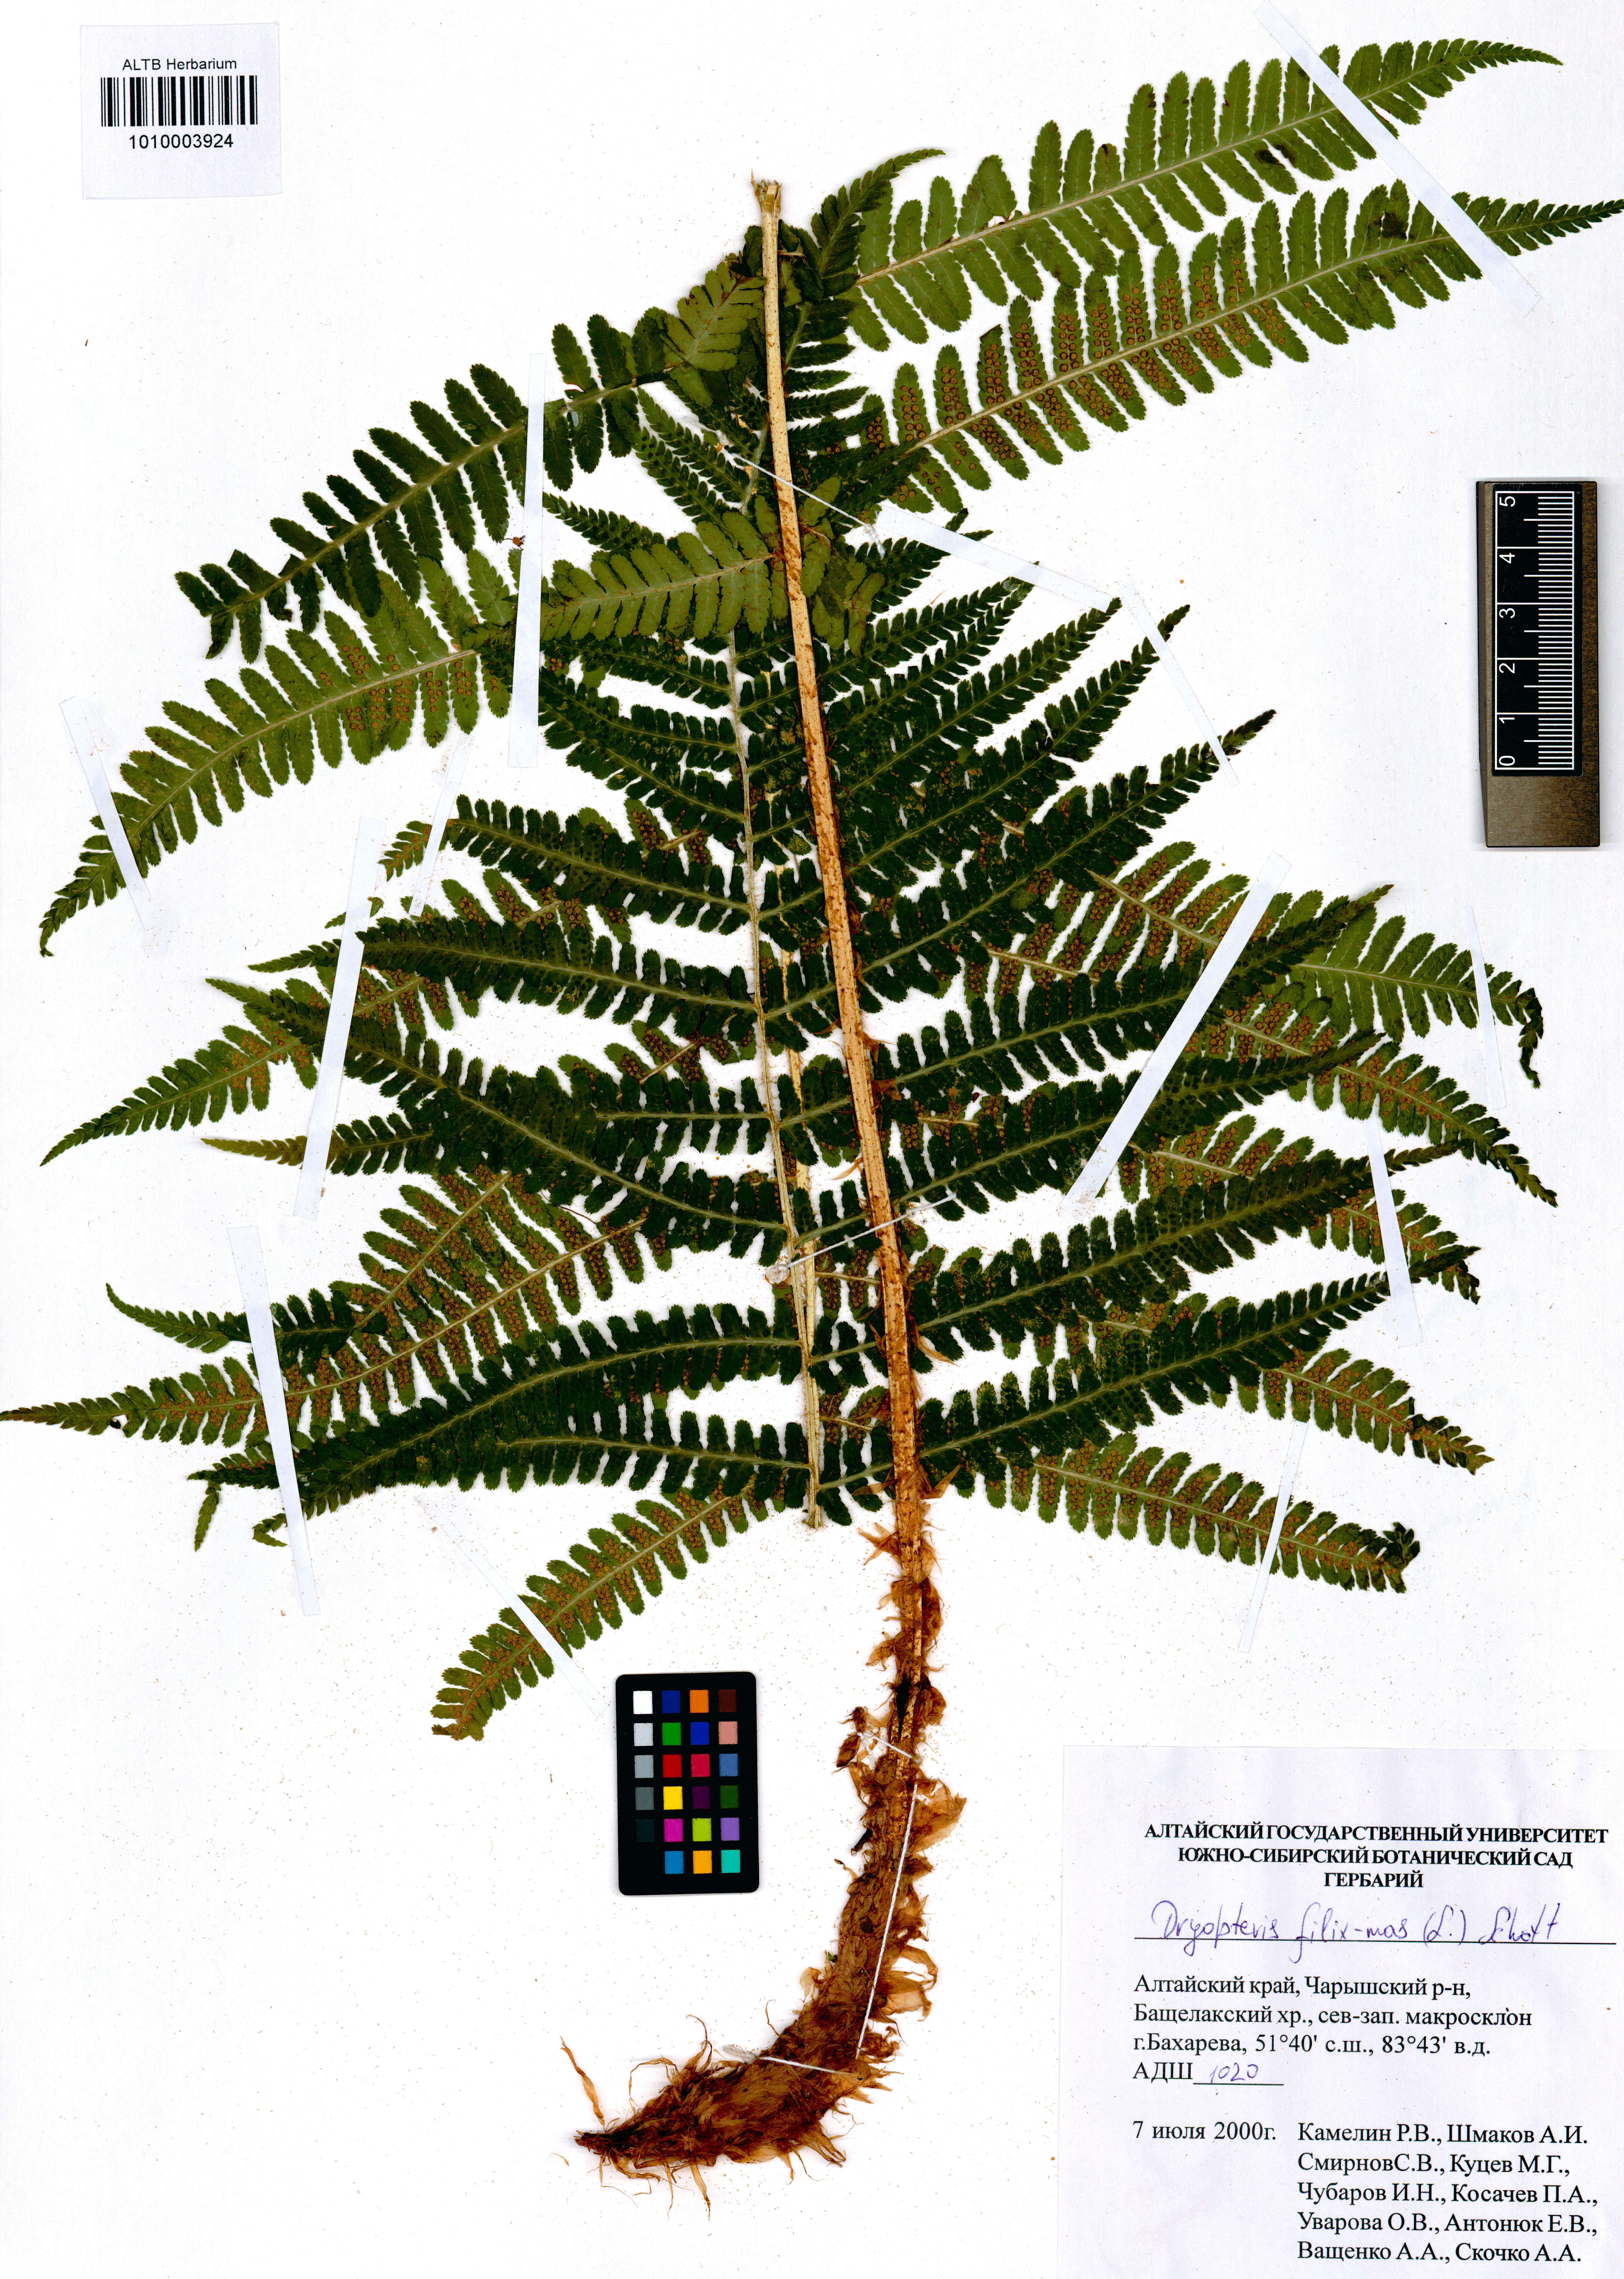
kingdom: Plantae
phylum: Tracheophyta
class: Polypodiopsida
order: Polypodiales
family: Dryopteridaceae
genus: Dryopteris
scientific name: Dryopteris filix-mas
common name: Male fern
